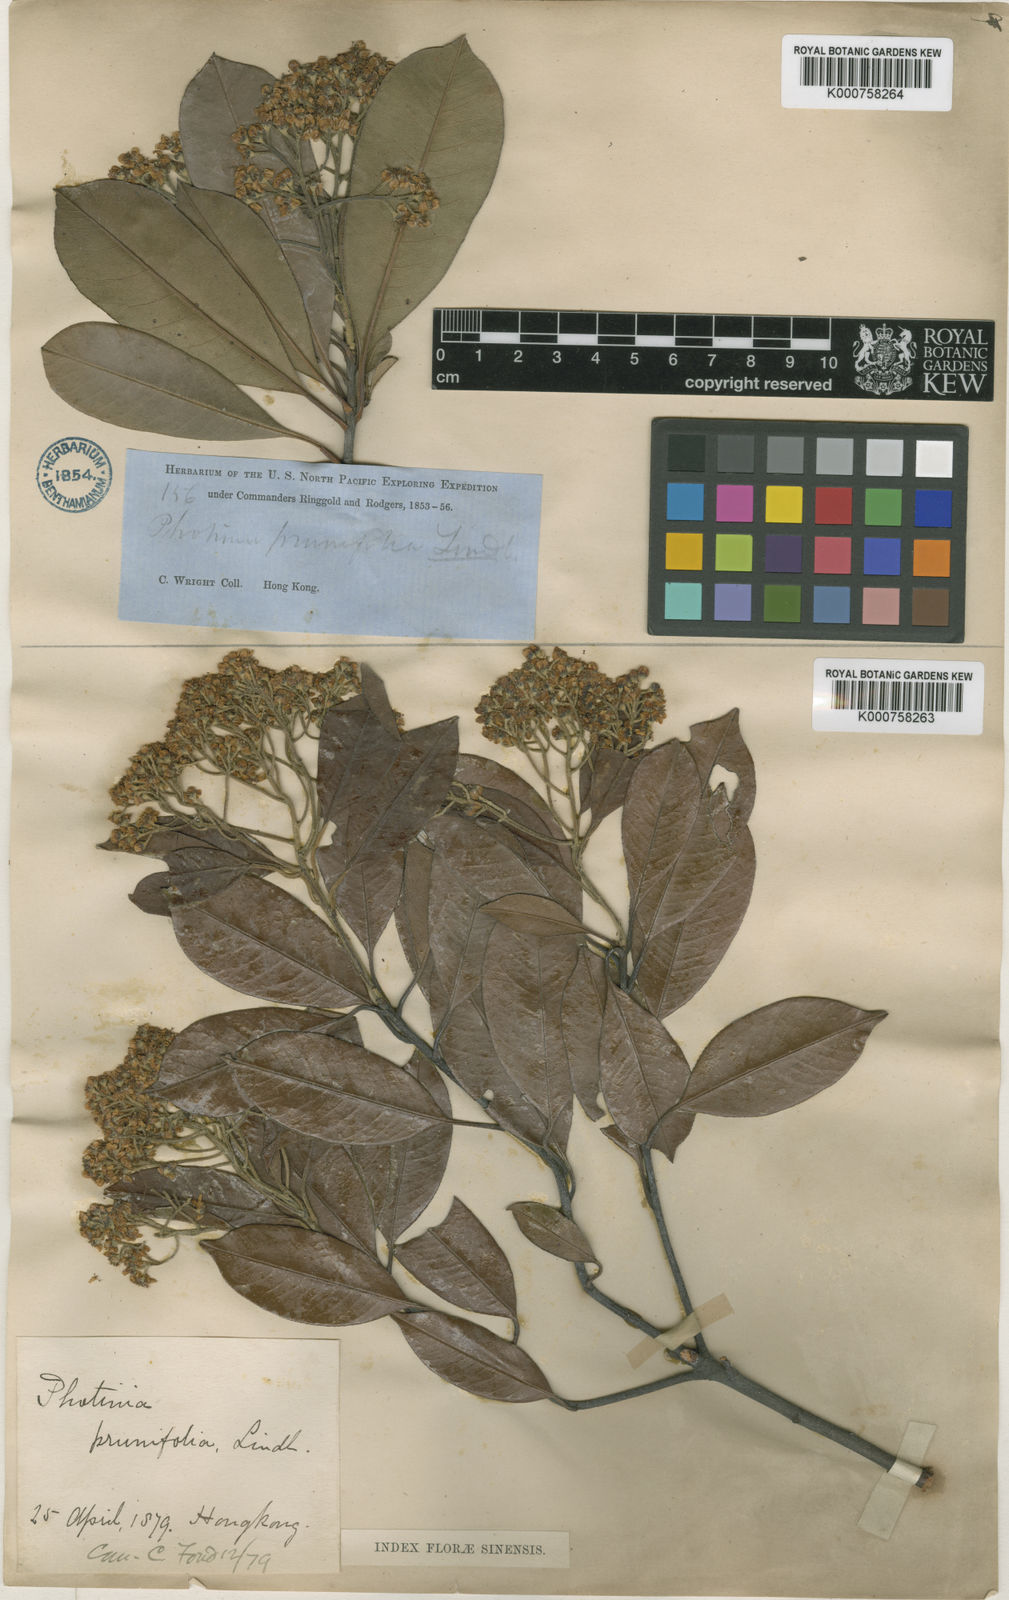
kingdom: Plantae
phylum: Tracheophyta
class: Magnoliopsida
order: Rosales
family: Rosaceae
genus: Photinia
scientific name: Photinia prunifolia
